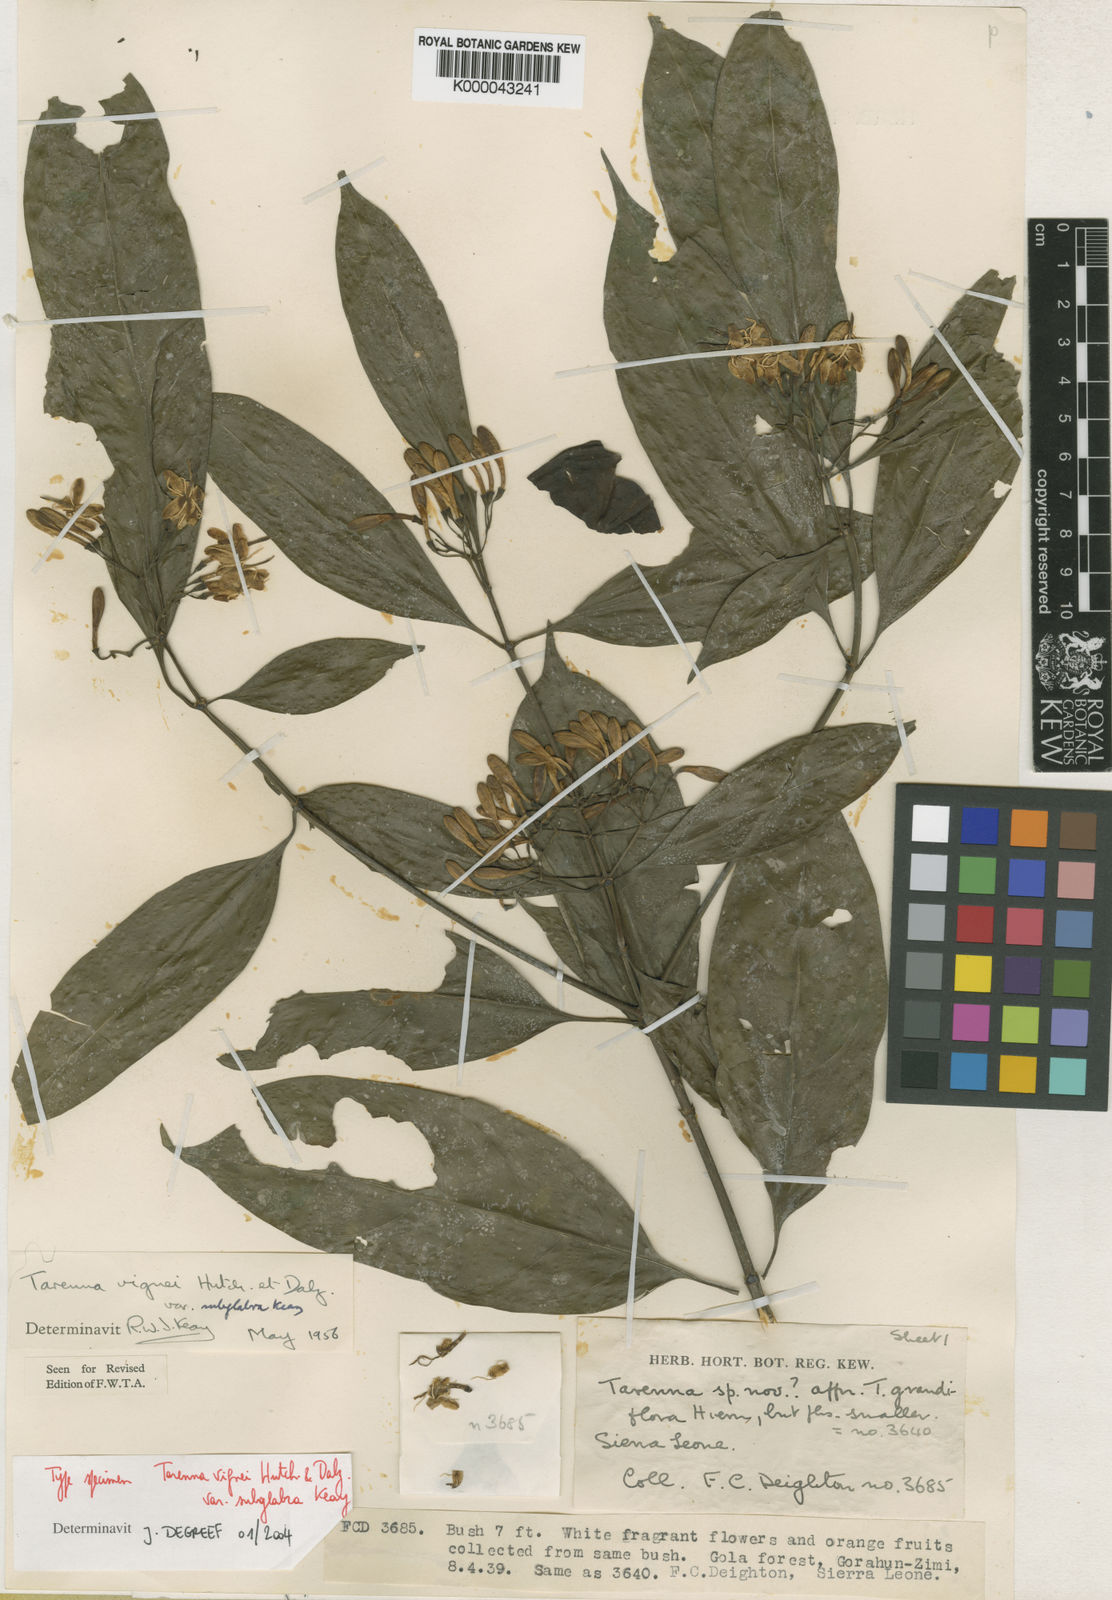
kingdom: Plantae
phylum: Tracheophyta
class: Magnoliopsida
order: Gentianales
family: Rubiaceae
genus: Tarenna
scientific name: Tarenna vignei
